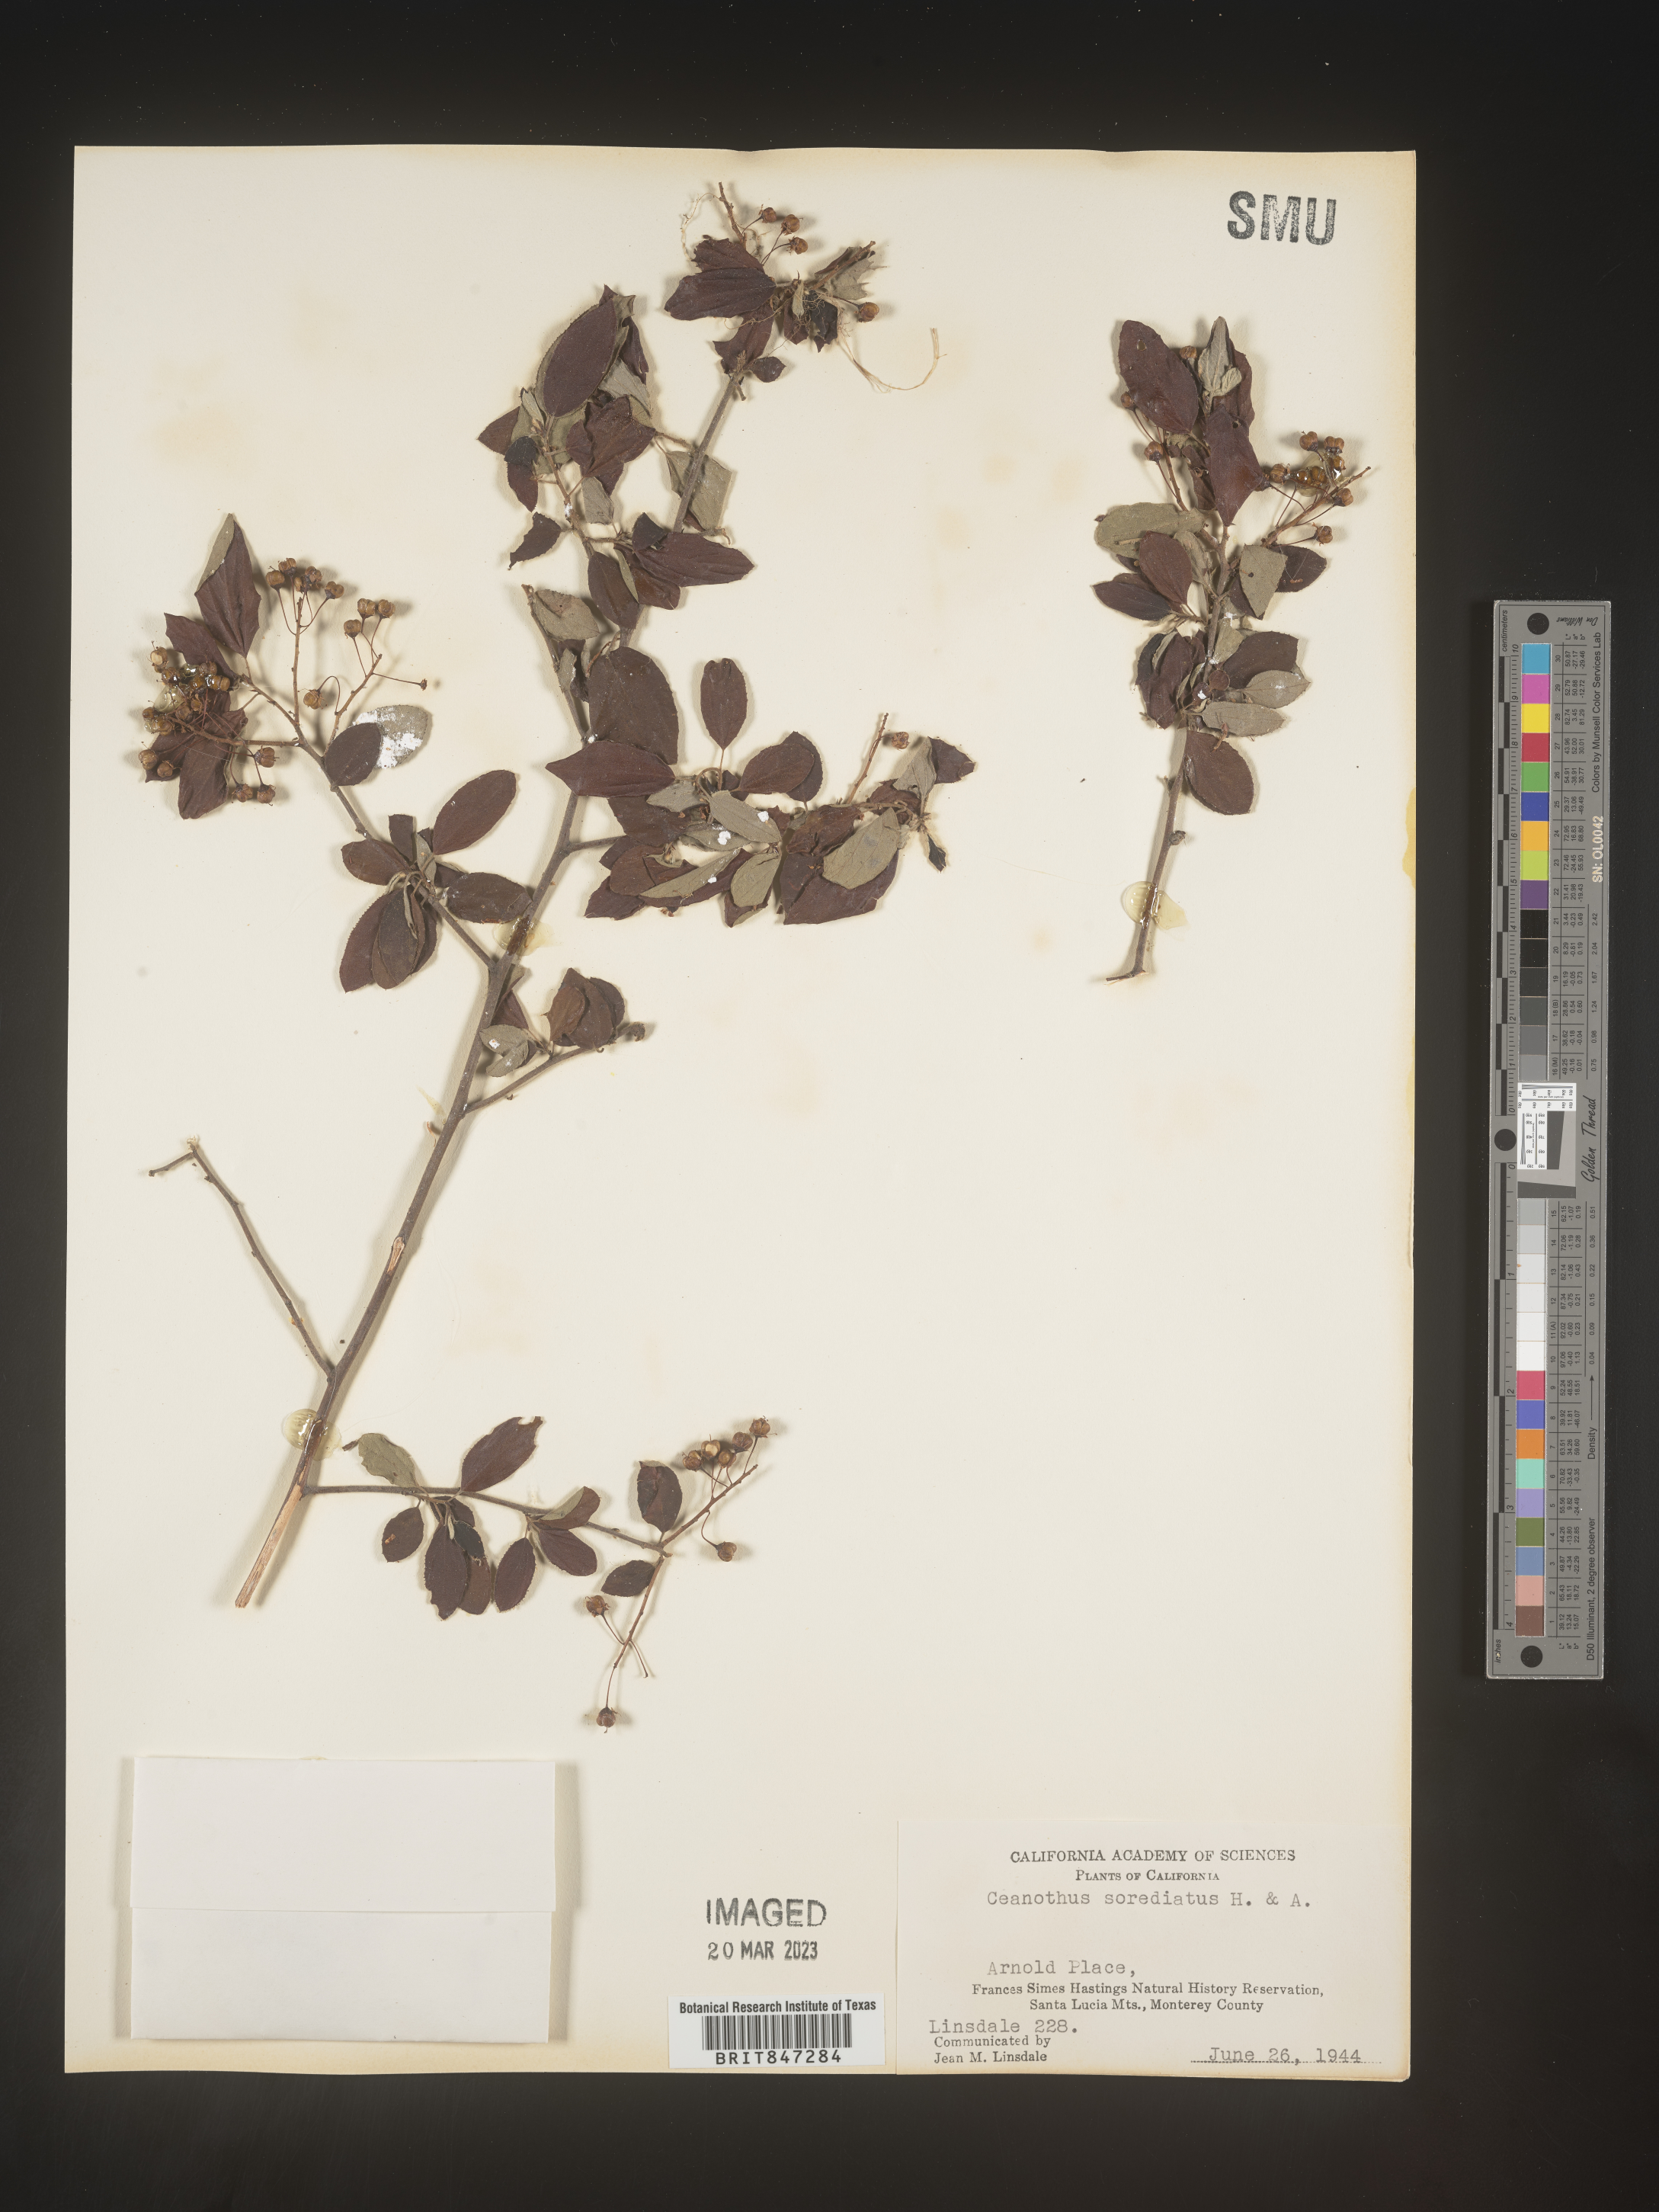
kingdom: Plantae
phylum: Tracheophyta
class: Magnoliopsida
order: Rosales
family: Rhamnaceae
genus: Ceanothus
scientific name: Ceanothus
